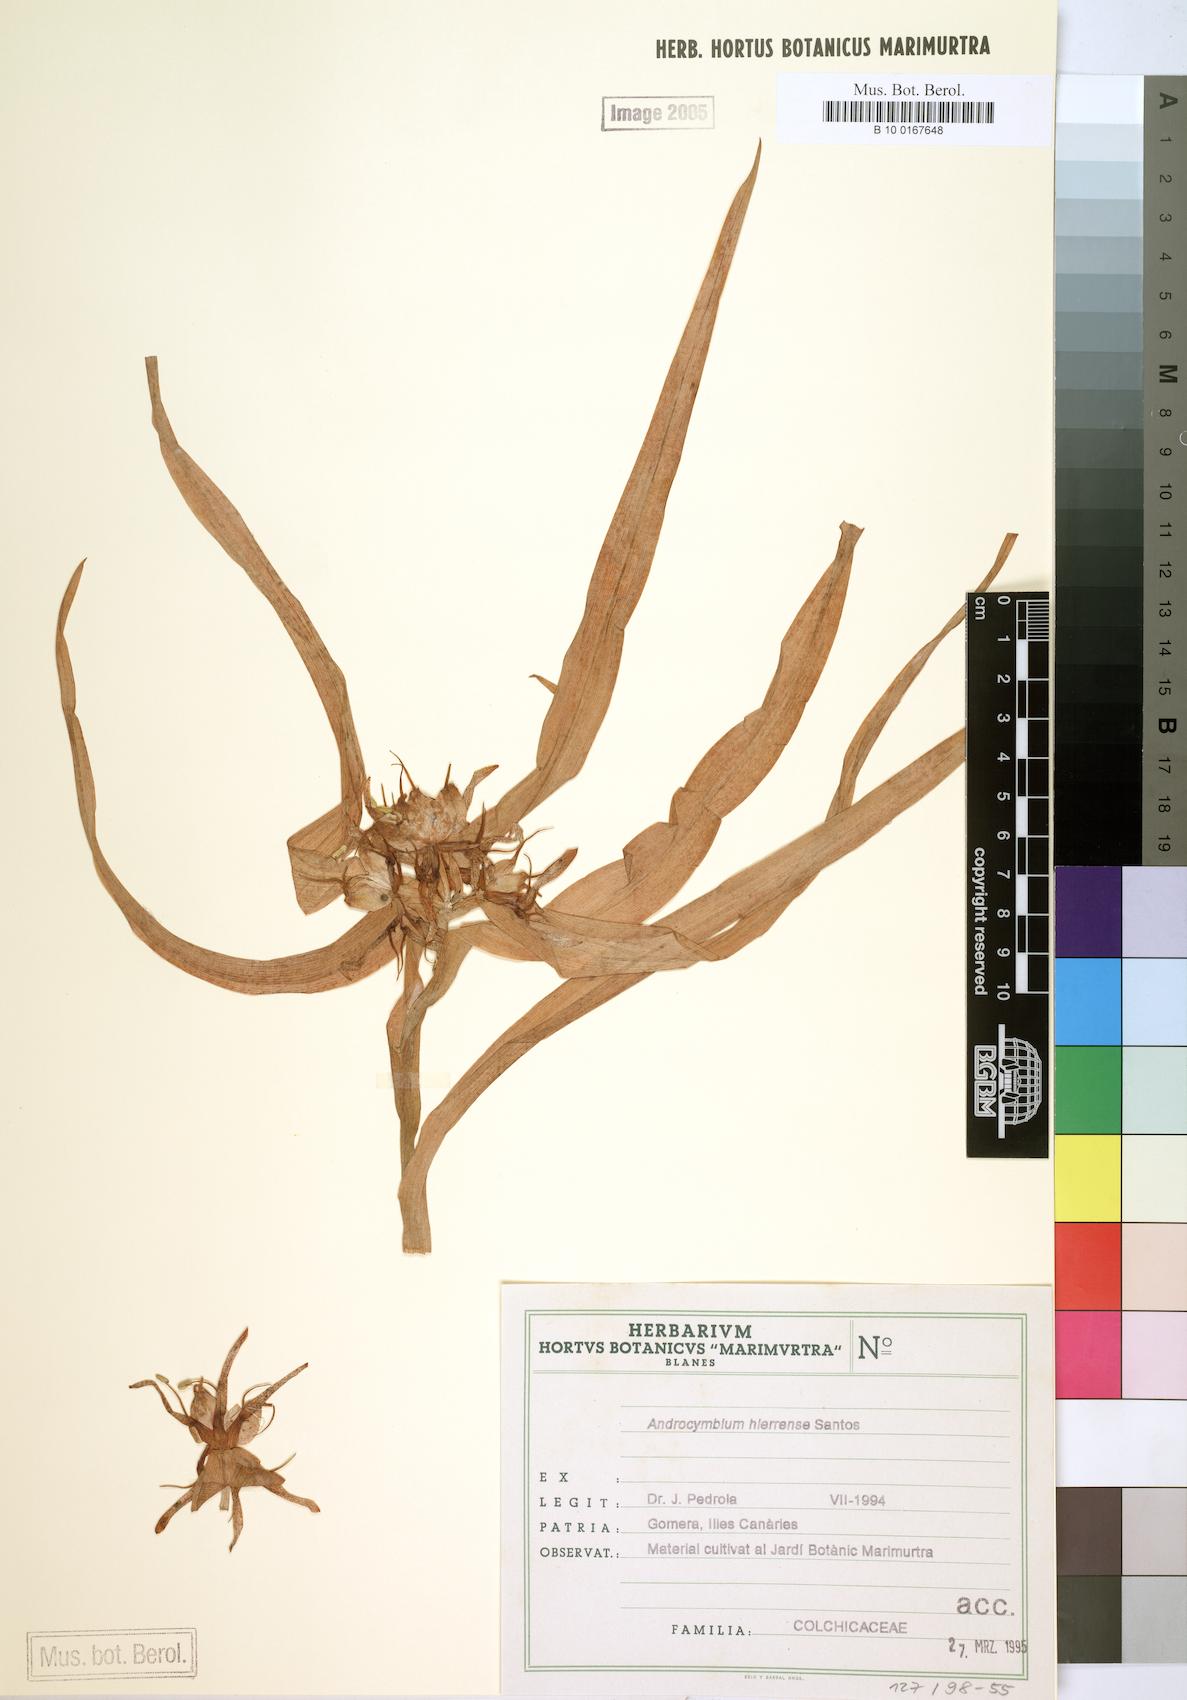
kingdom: Plantae
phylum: Tracheophyta
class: Liliopsida
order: Liliales
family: Colchicaceae
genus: Colchicum
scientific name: Colchicum hierrense
